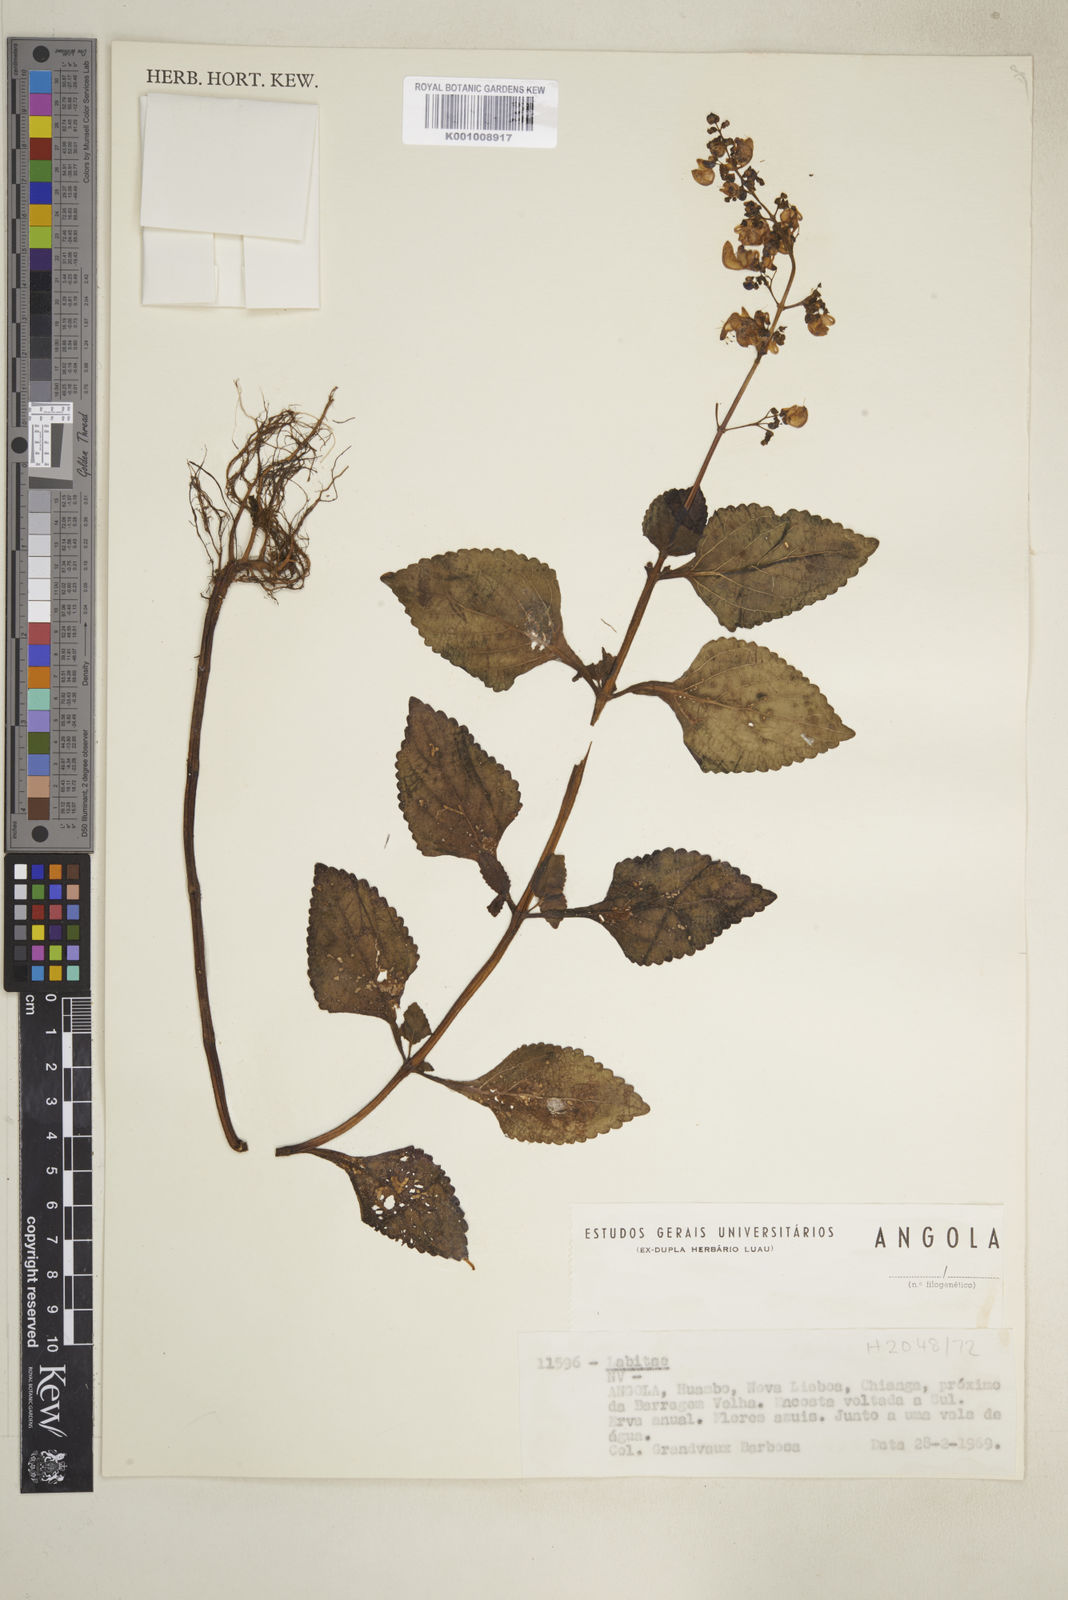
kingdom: Plantae
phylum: Tracheophyta
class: Magnoliopsida
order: Lamiales
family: Lamiaceae
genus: Coleus
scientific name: Coleus tenuicaulis
